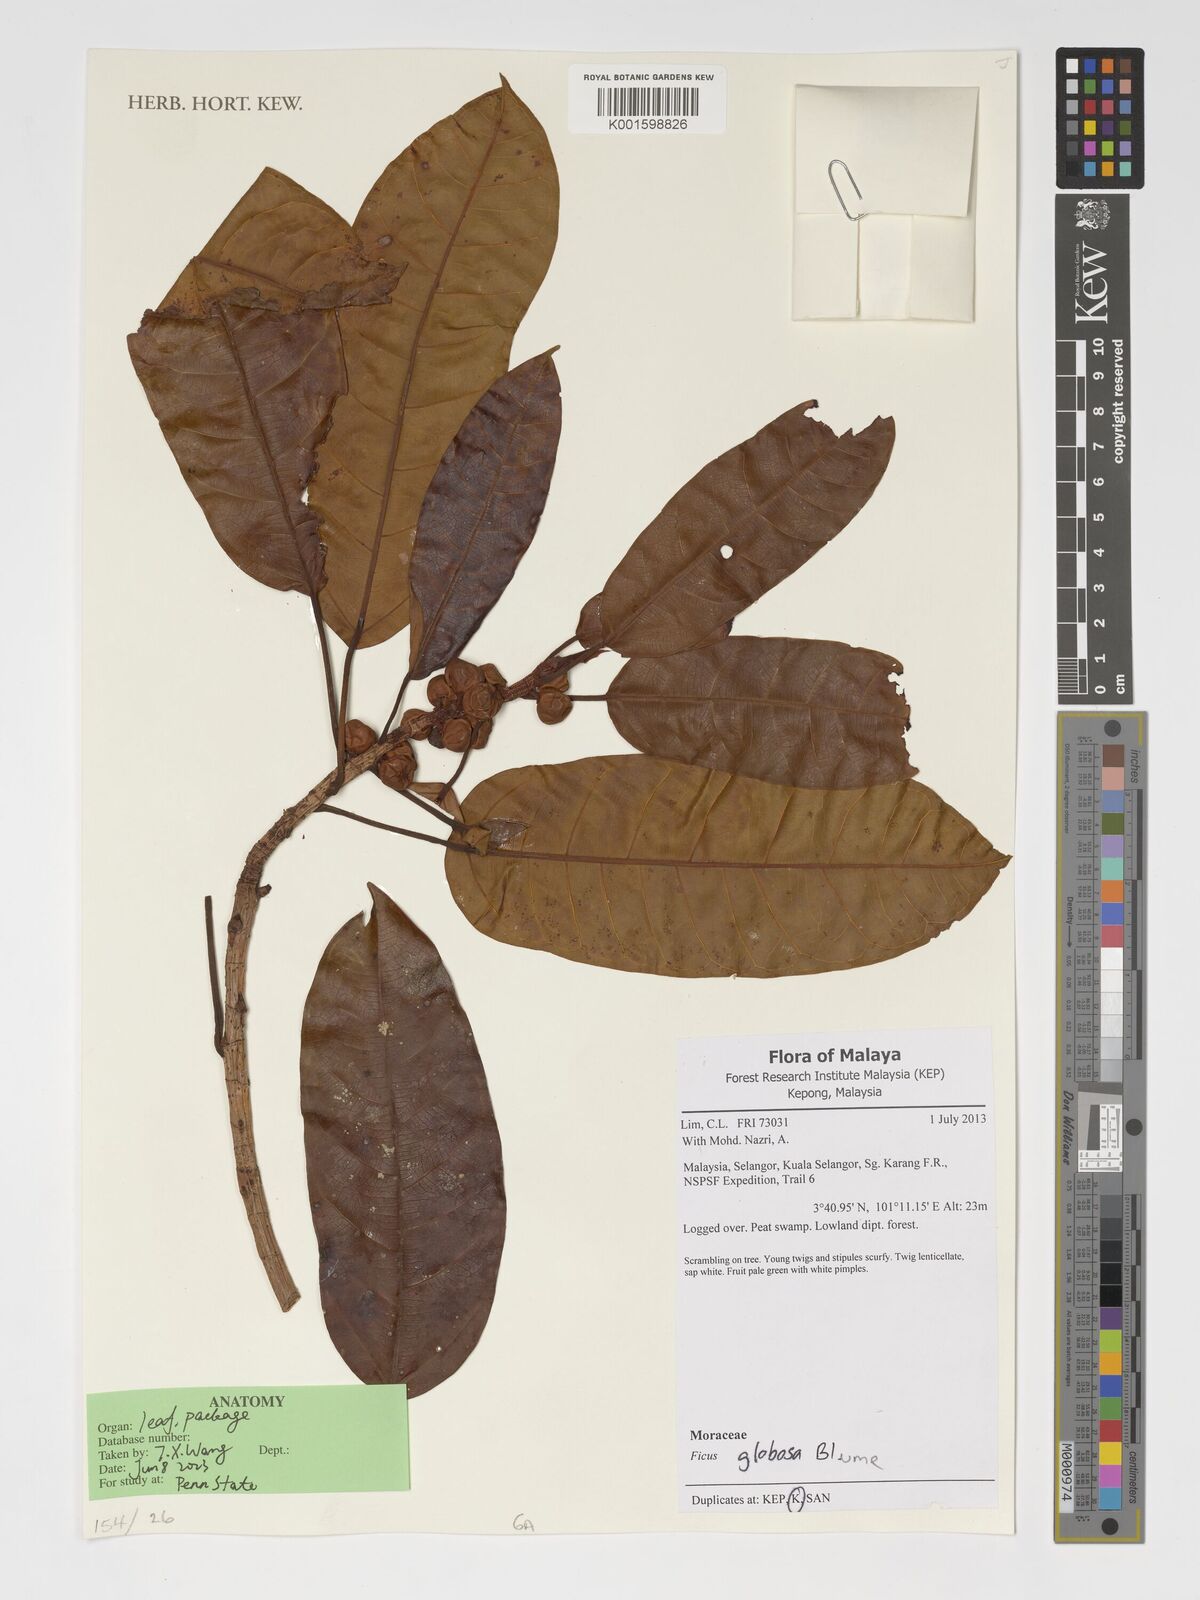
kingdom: Plantae
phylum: Tracheophyta
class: Magnoliopsida
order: Rosales
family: Moraceae
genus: Ficus
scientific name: Ficus globosa
